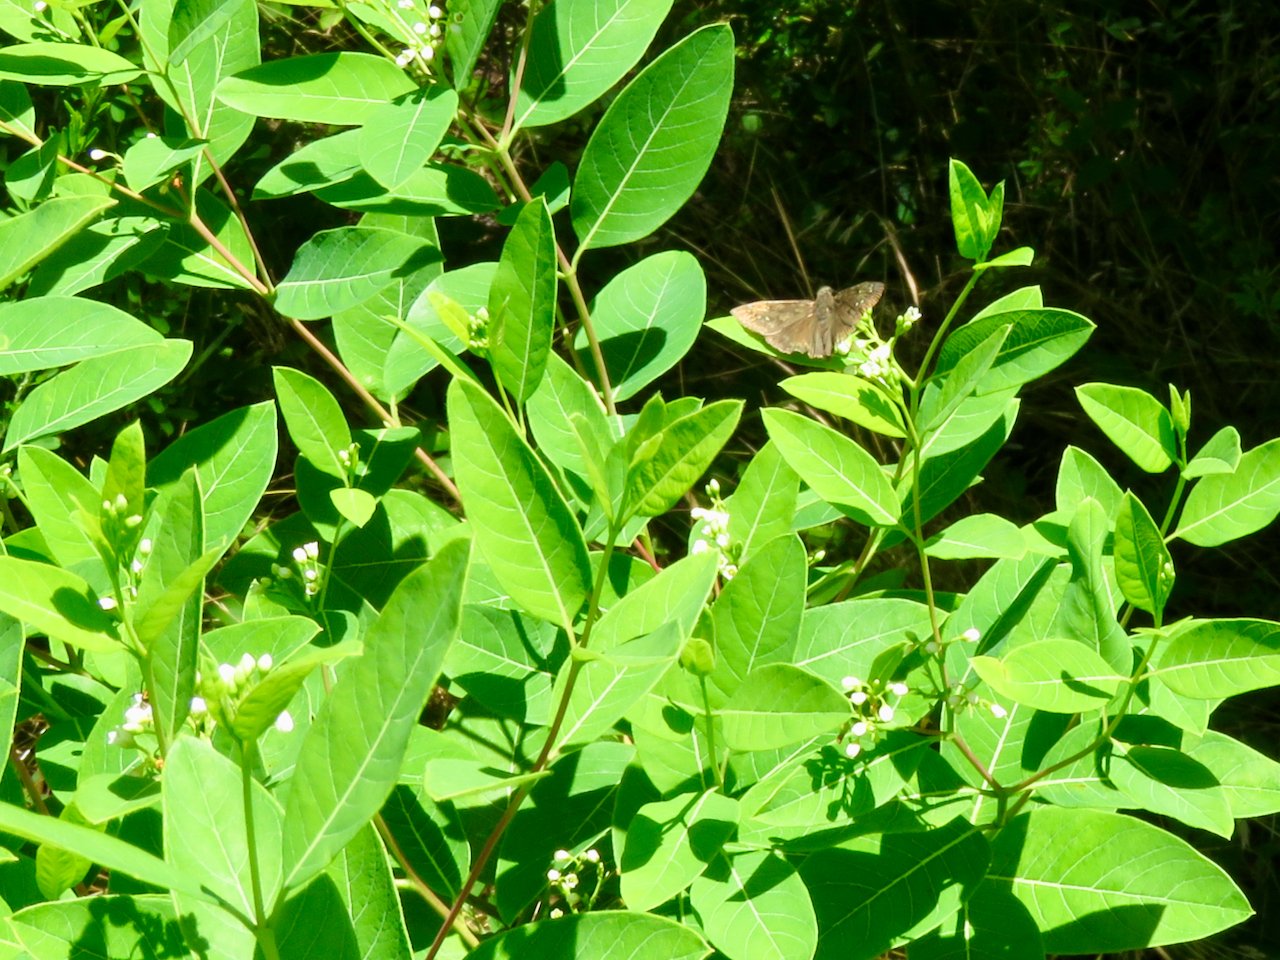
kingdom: Animalia
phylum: Arthropoda
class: Insecta
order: Lepidoptera
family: Hesperiidae
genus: Gesta
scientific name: Gesta
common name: Horace's Duskywing
